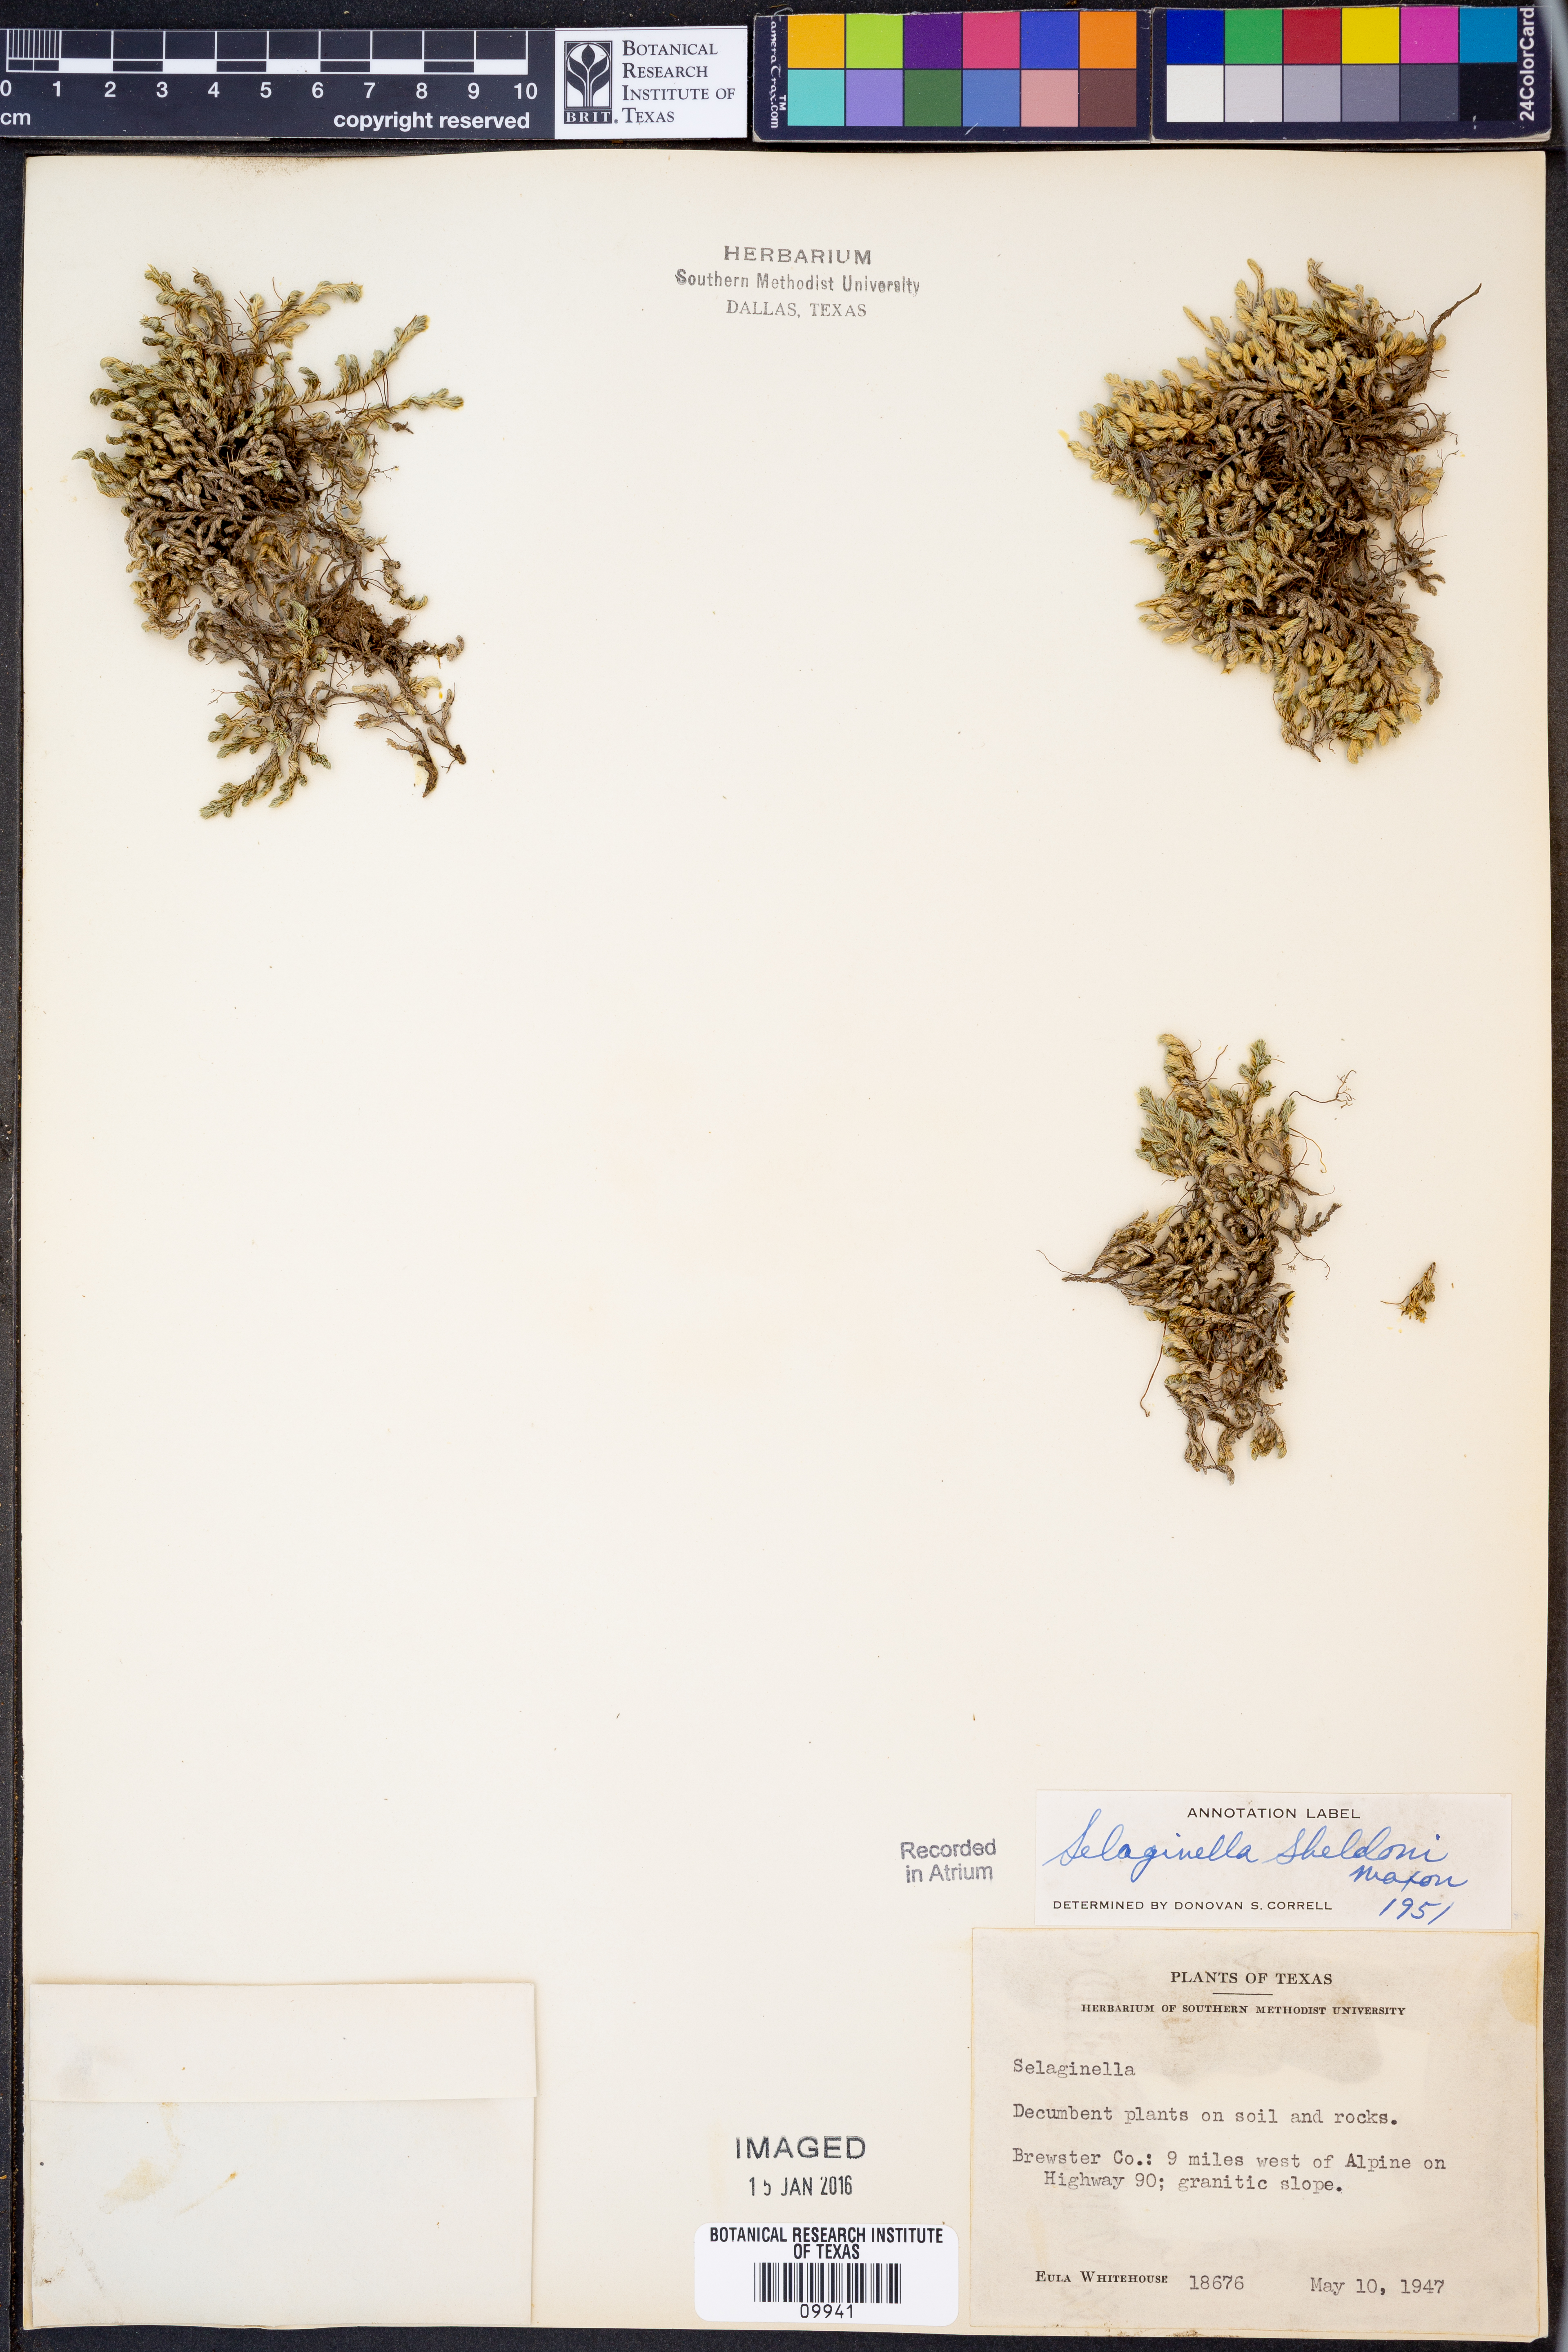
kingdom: Plantae
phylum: Tracheophyta
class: Lycopodiopsida
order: Selaginellales
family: Selaginellaceae
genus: Selaginella
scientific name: Selaginella peruviana
